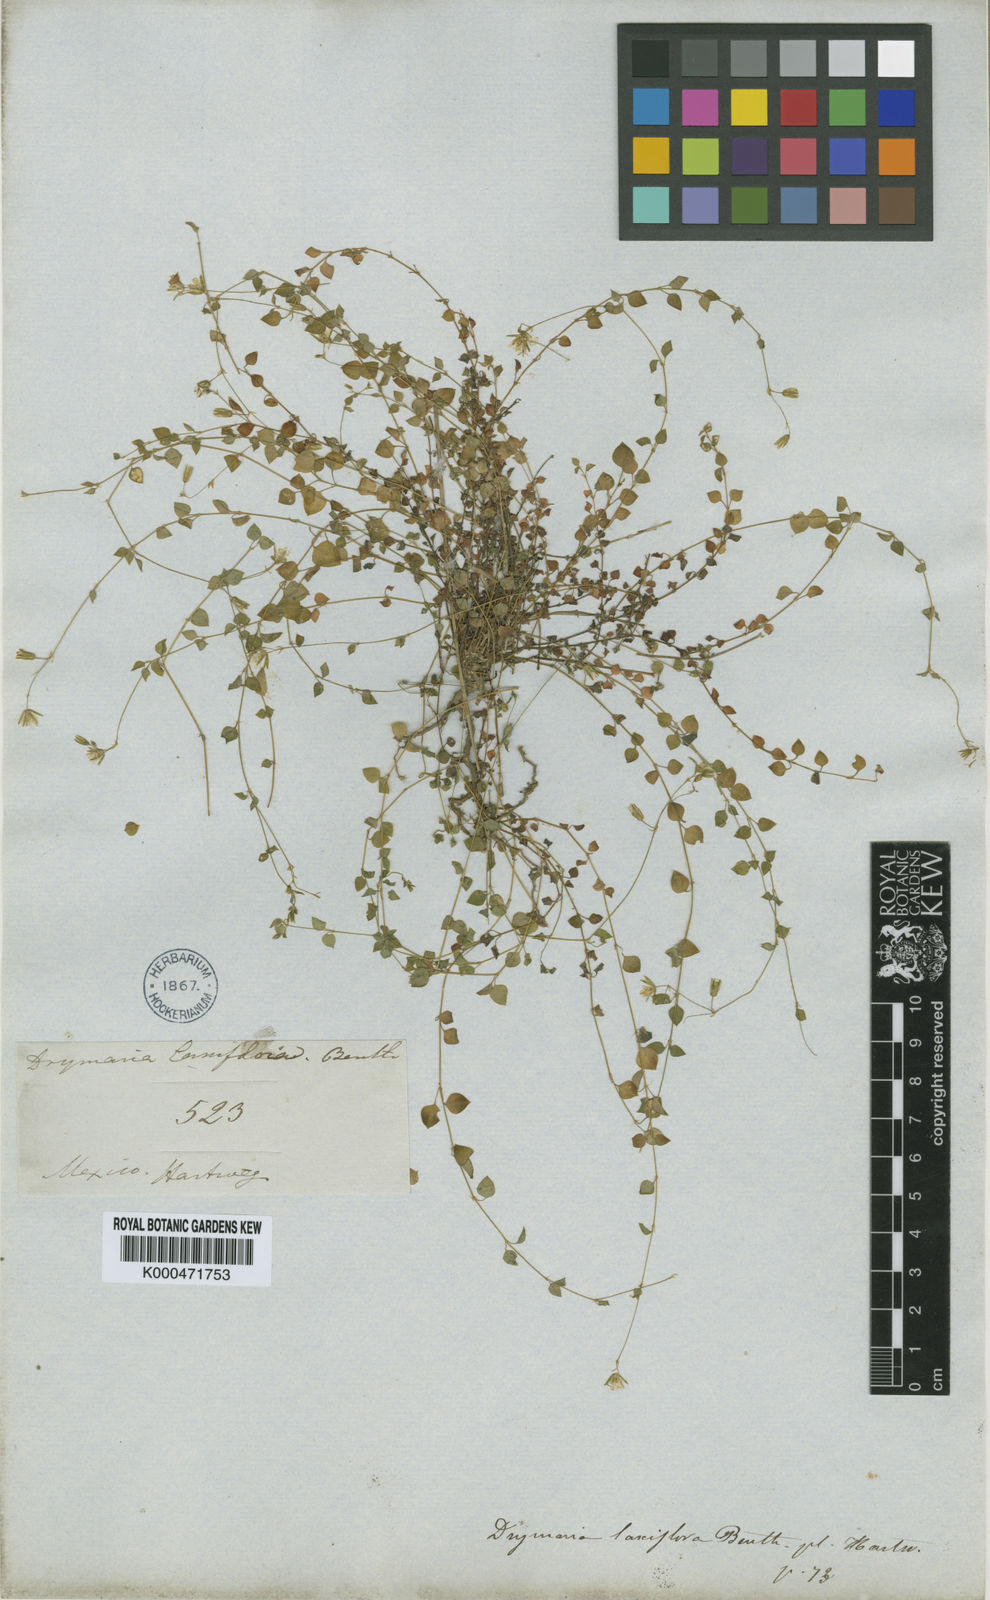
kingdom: Plantae
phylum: Tracheophyta
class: Magnoliopsida
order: Caryophyllales
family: Caryophyllaceae
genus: Drymaria
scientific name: Drymaria laxiflora
